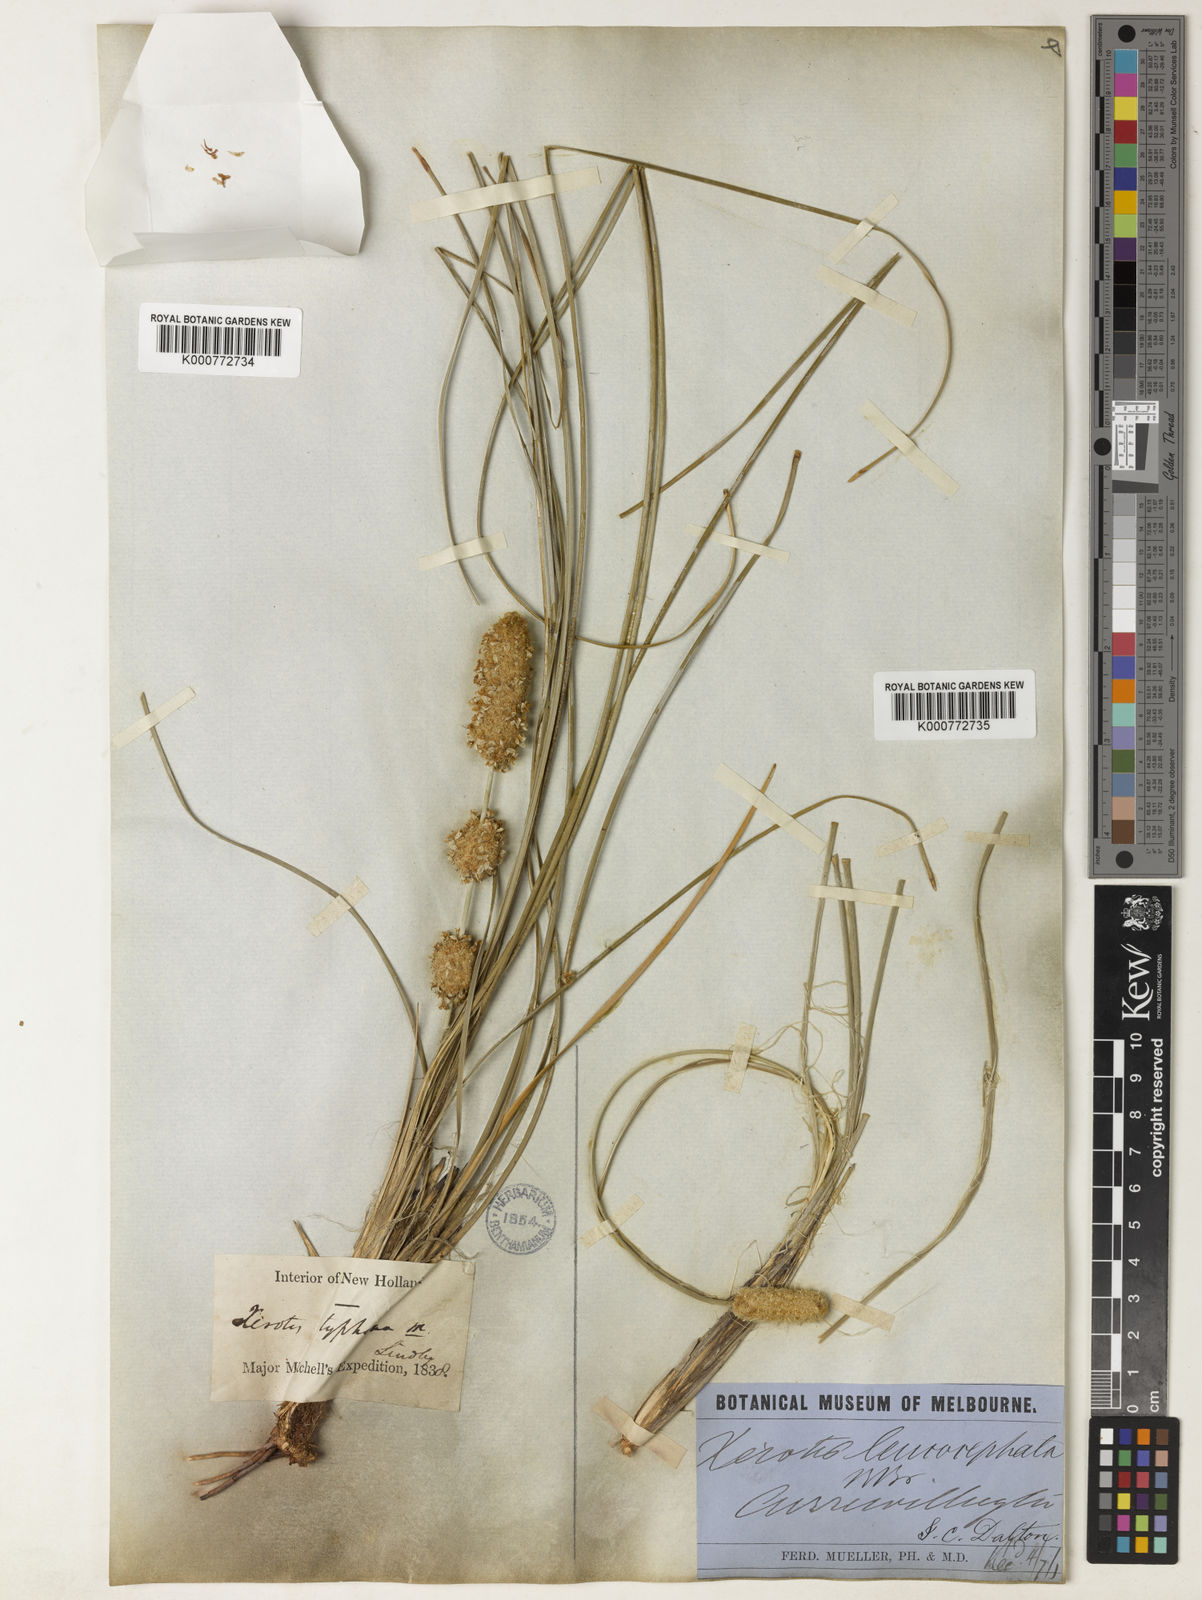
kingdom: Plantae
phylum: Tracheophyta
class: Liliopsida
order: Asparagales
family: Asparagaceae
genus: Lomandra
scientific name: Lomandra leucocephala
